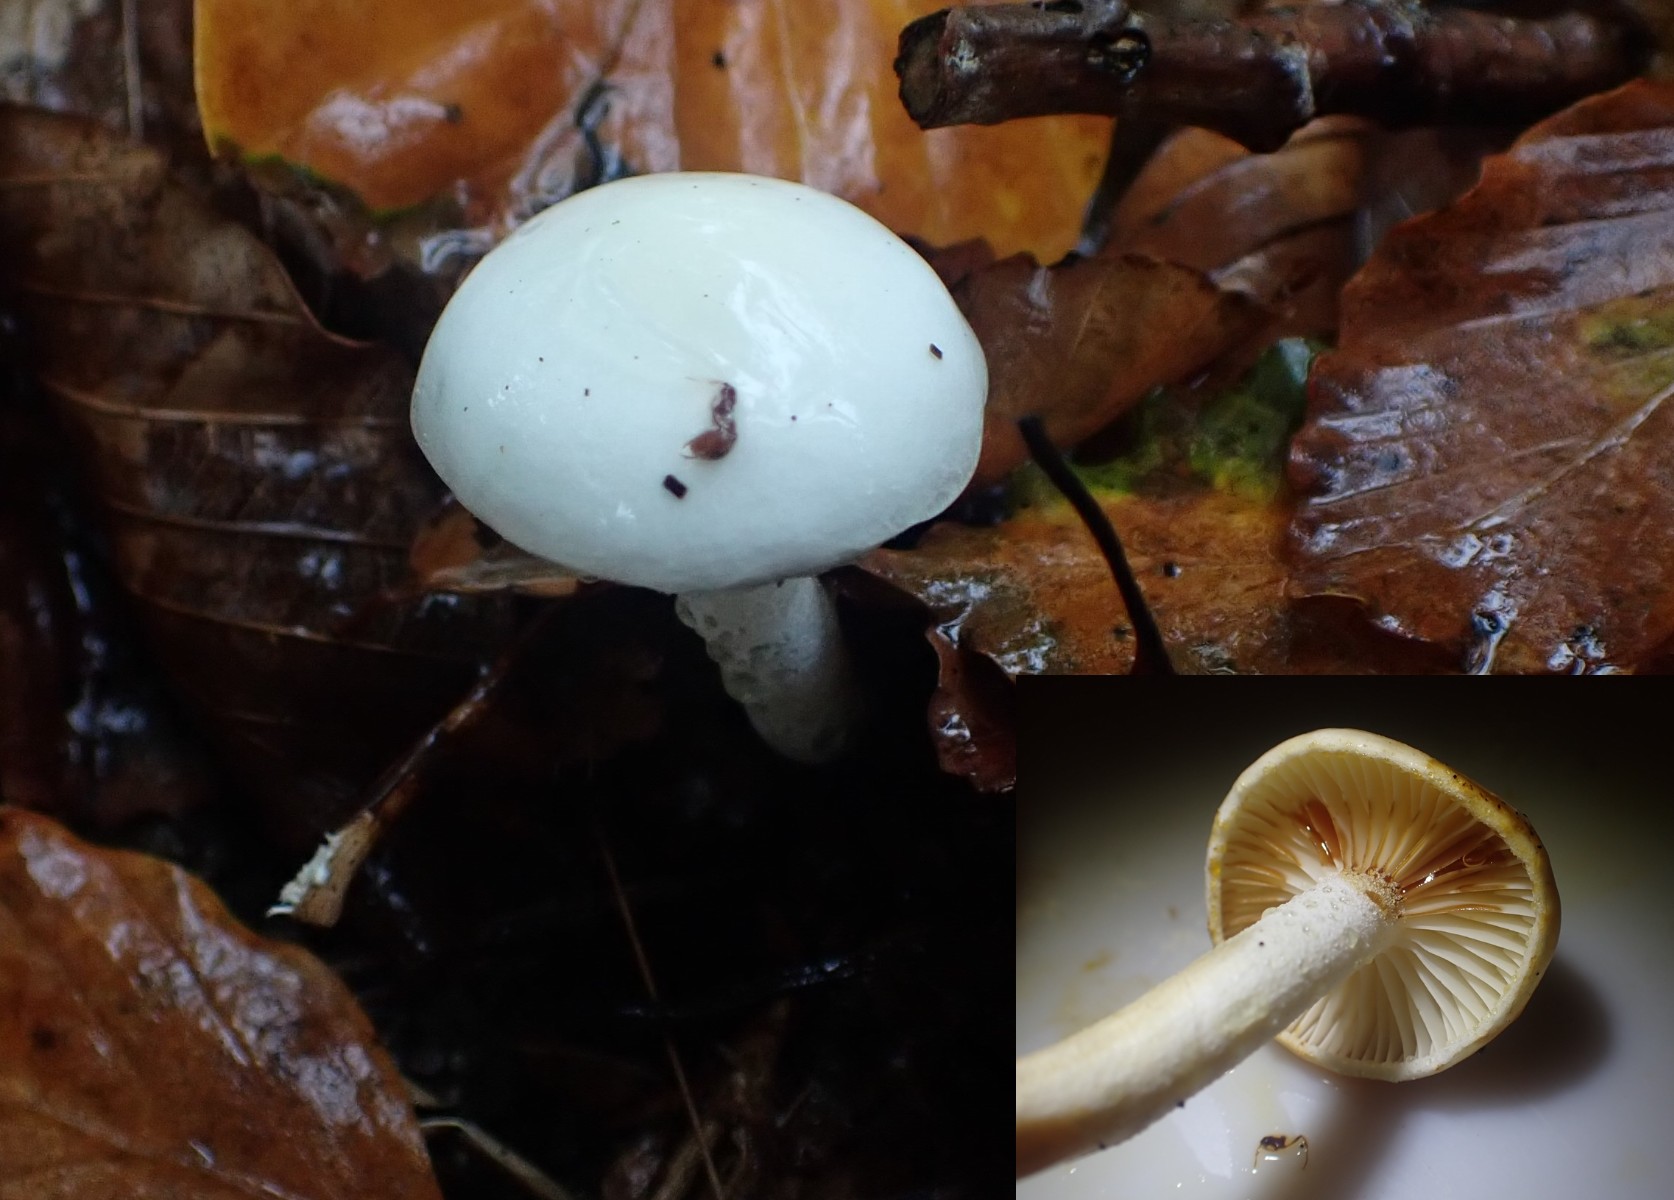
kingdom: Fungi
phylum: Basidiomycota
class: Agaricomycetes
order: Agaricales
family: Hygrophoraceae
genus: Hygrophorus
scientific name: Hygrophorus discoxanthus
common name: ildelugtende sneglehat
